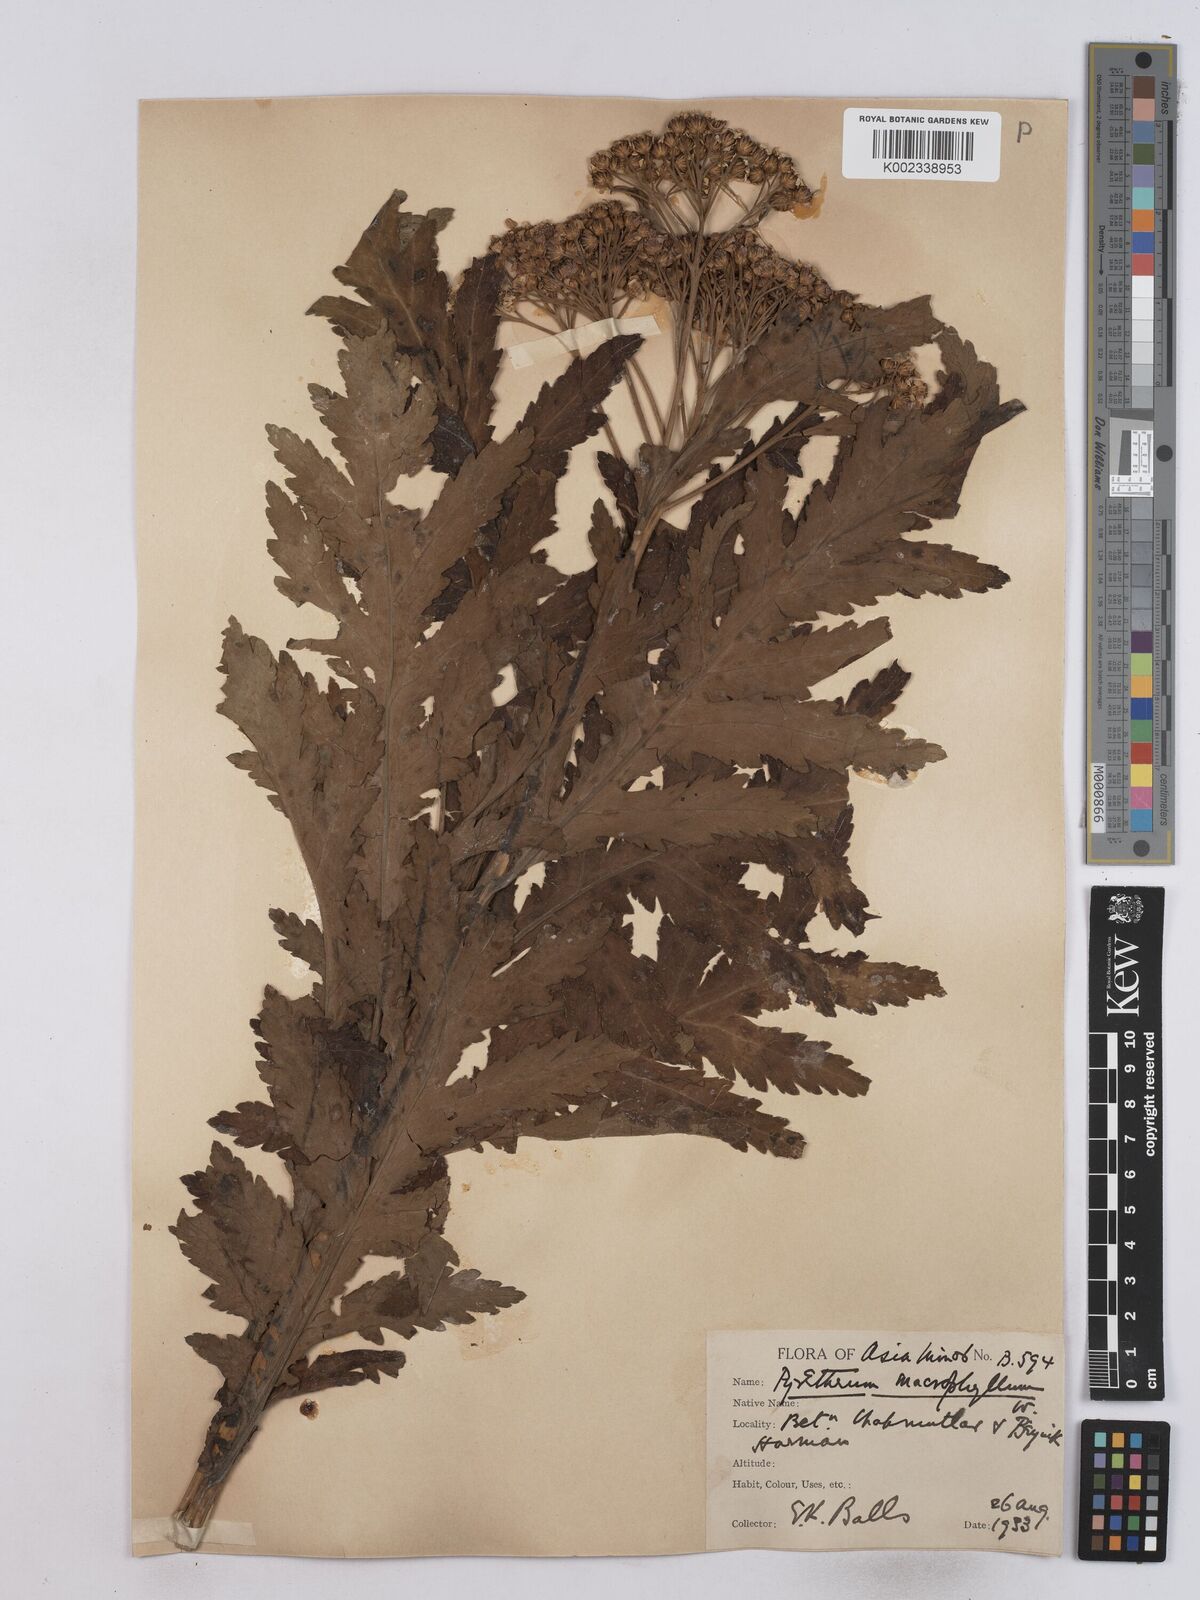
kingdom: Plantae
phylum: Tracheophyta
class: Magnoliopsida
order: Asterales
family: Asteraceae
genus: Tanacetum
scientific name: Tanacetum macrophyllum
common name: Rayed tansy
